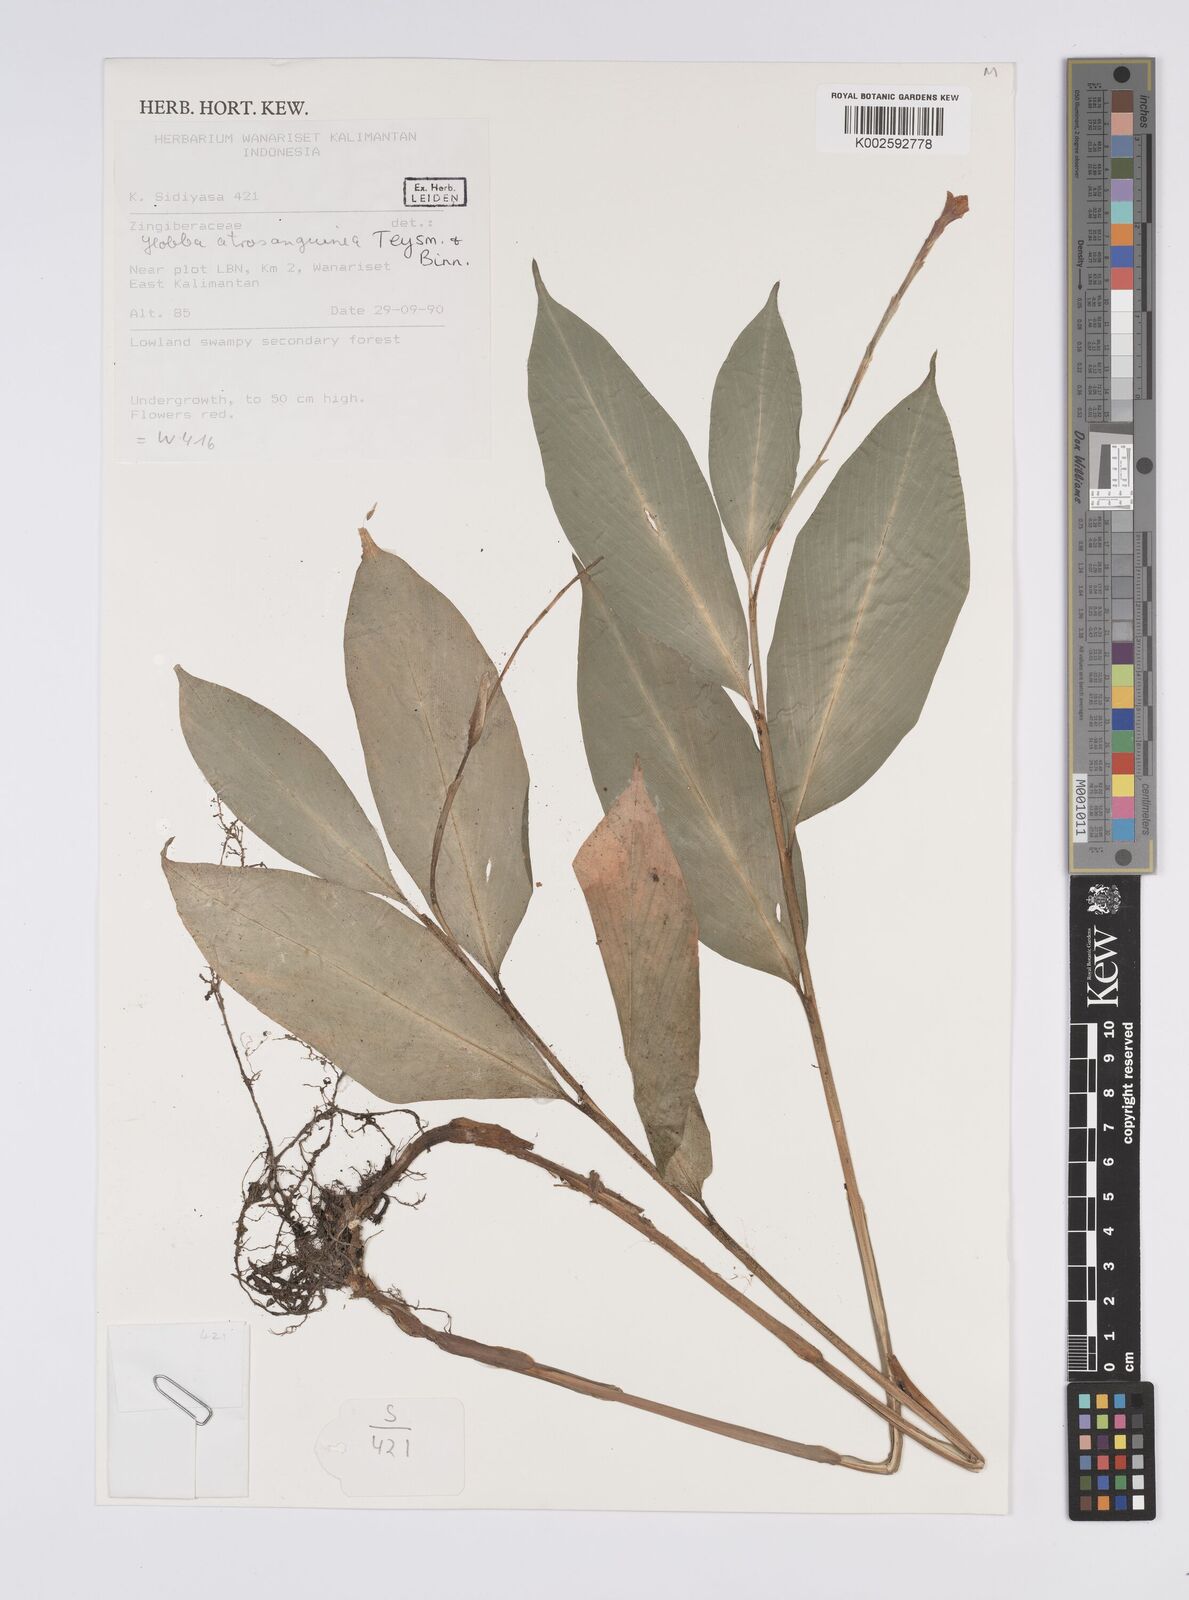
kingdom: Plantae
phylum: Tracheophyta
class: Liliopsida
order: Zingiberales
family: Zingiberaceae
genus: Globba
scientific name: Globba atrosanguinea
